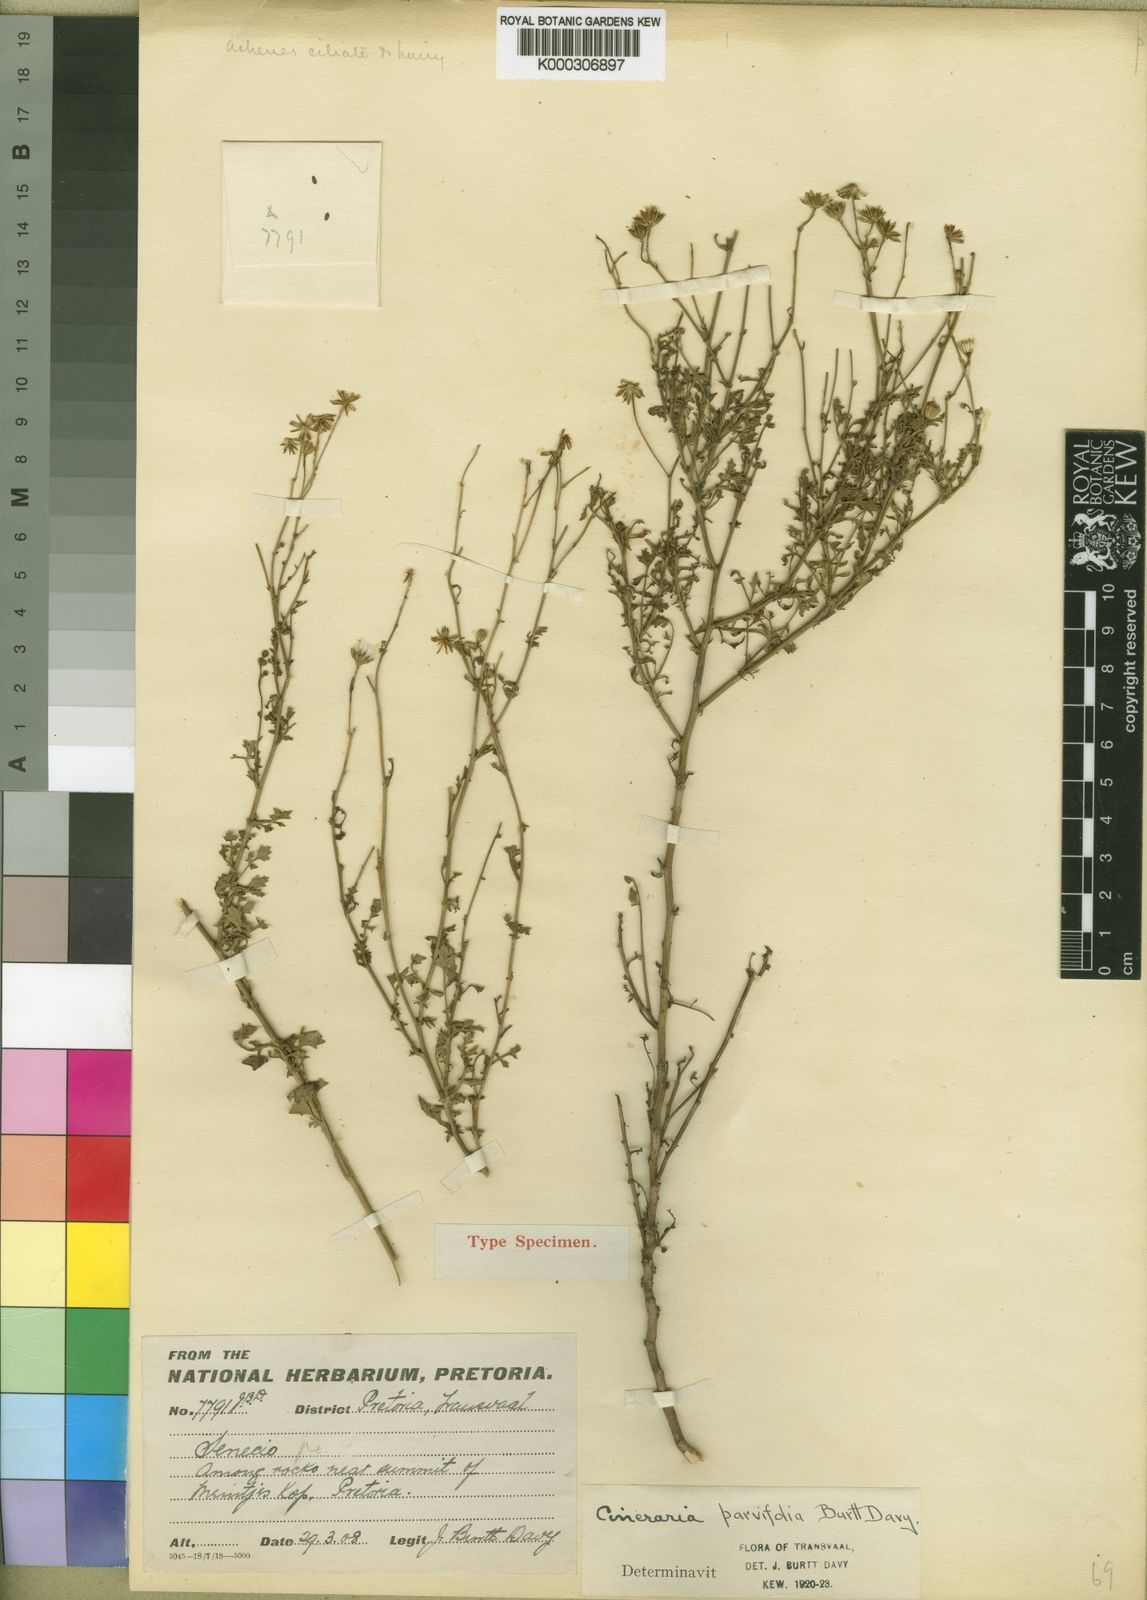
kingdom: Plantae
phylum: Tracheophyta
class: Magnoliopsida
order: Asterales
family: Asteraceae
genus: Cineraria
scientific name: Cineraria parvifolia
